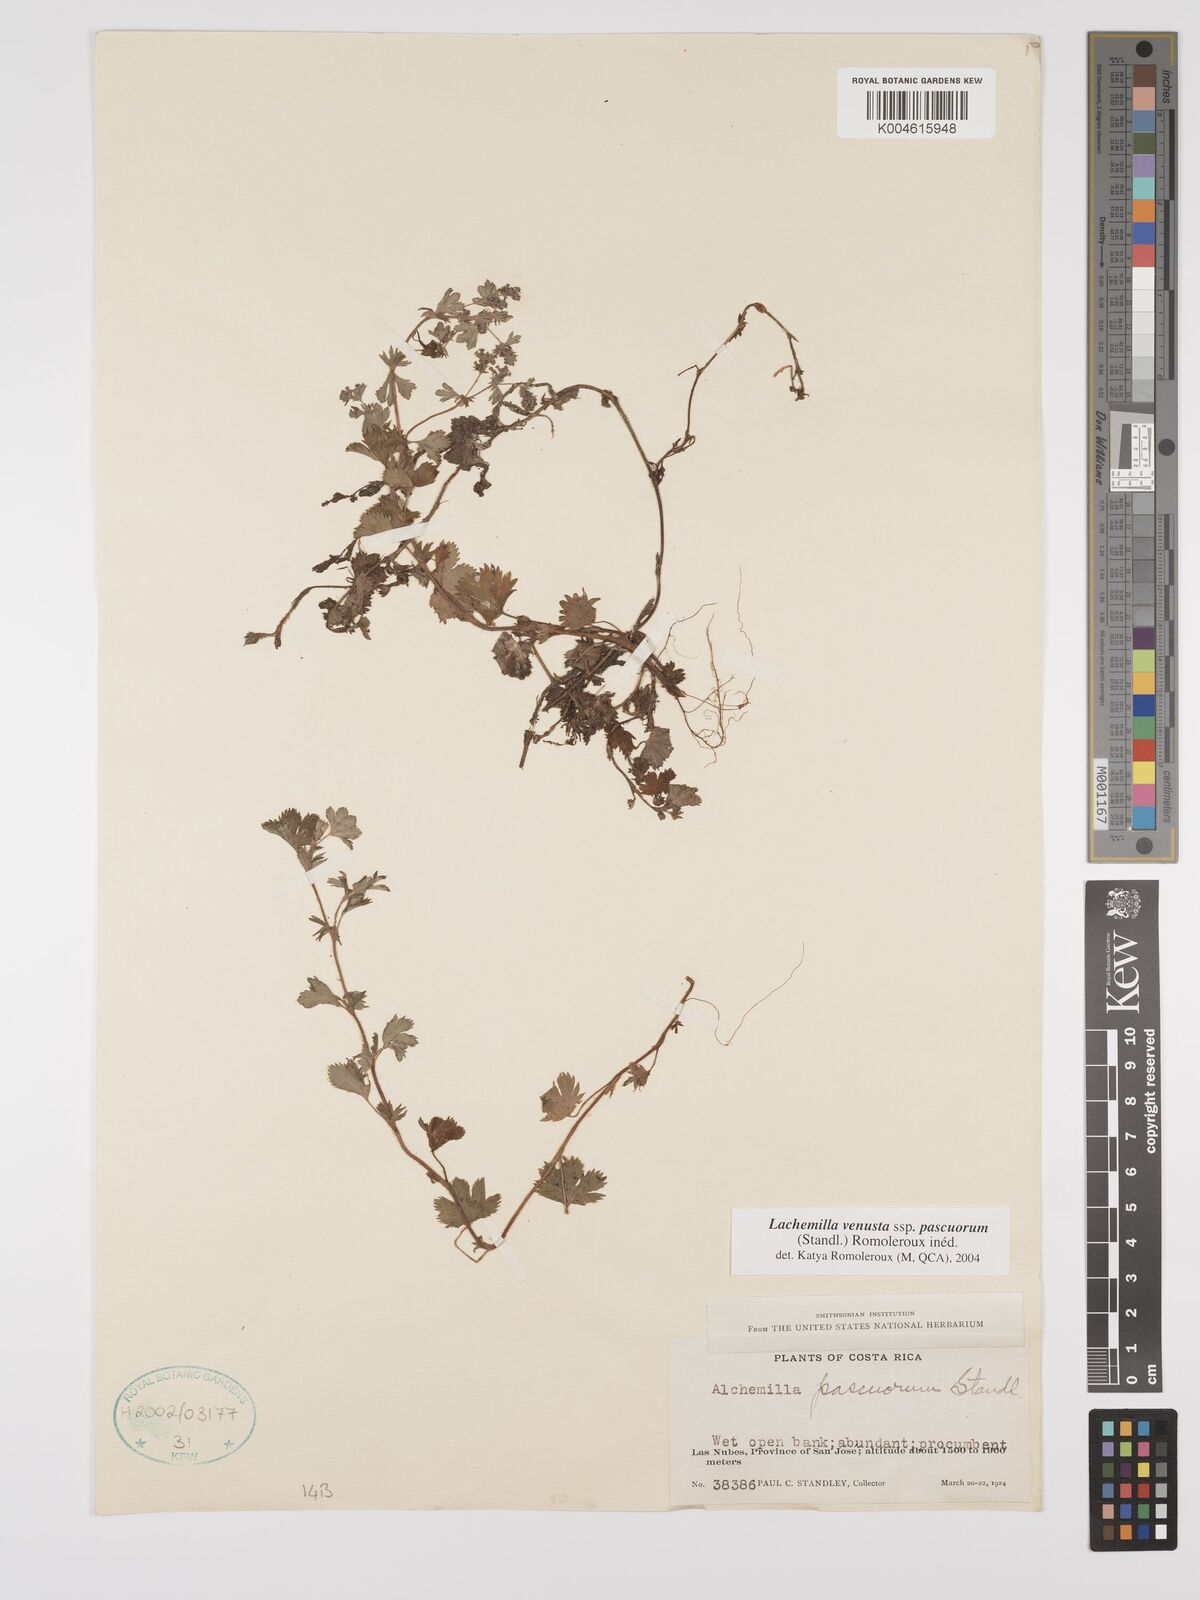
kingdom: Plantae
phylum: Tracheophyta
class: Magnoliopsida
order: Rosales
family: Rosaceae
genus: Lachemilla
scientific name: Lachemilla venusta
